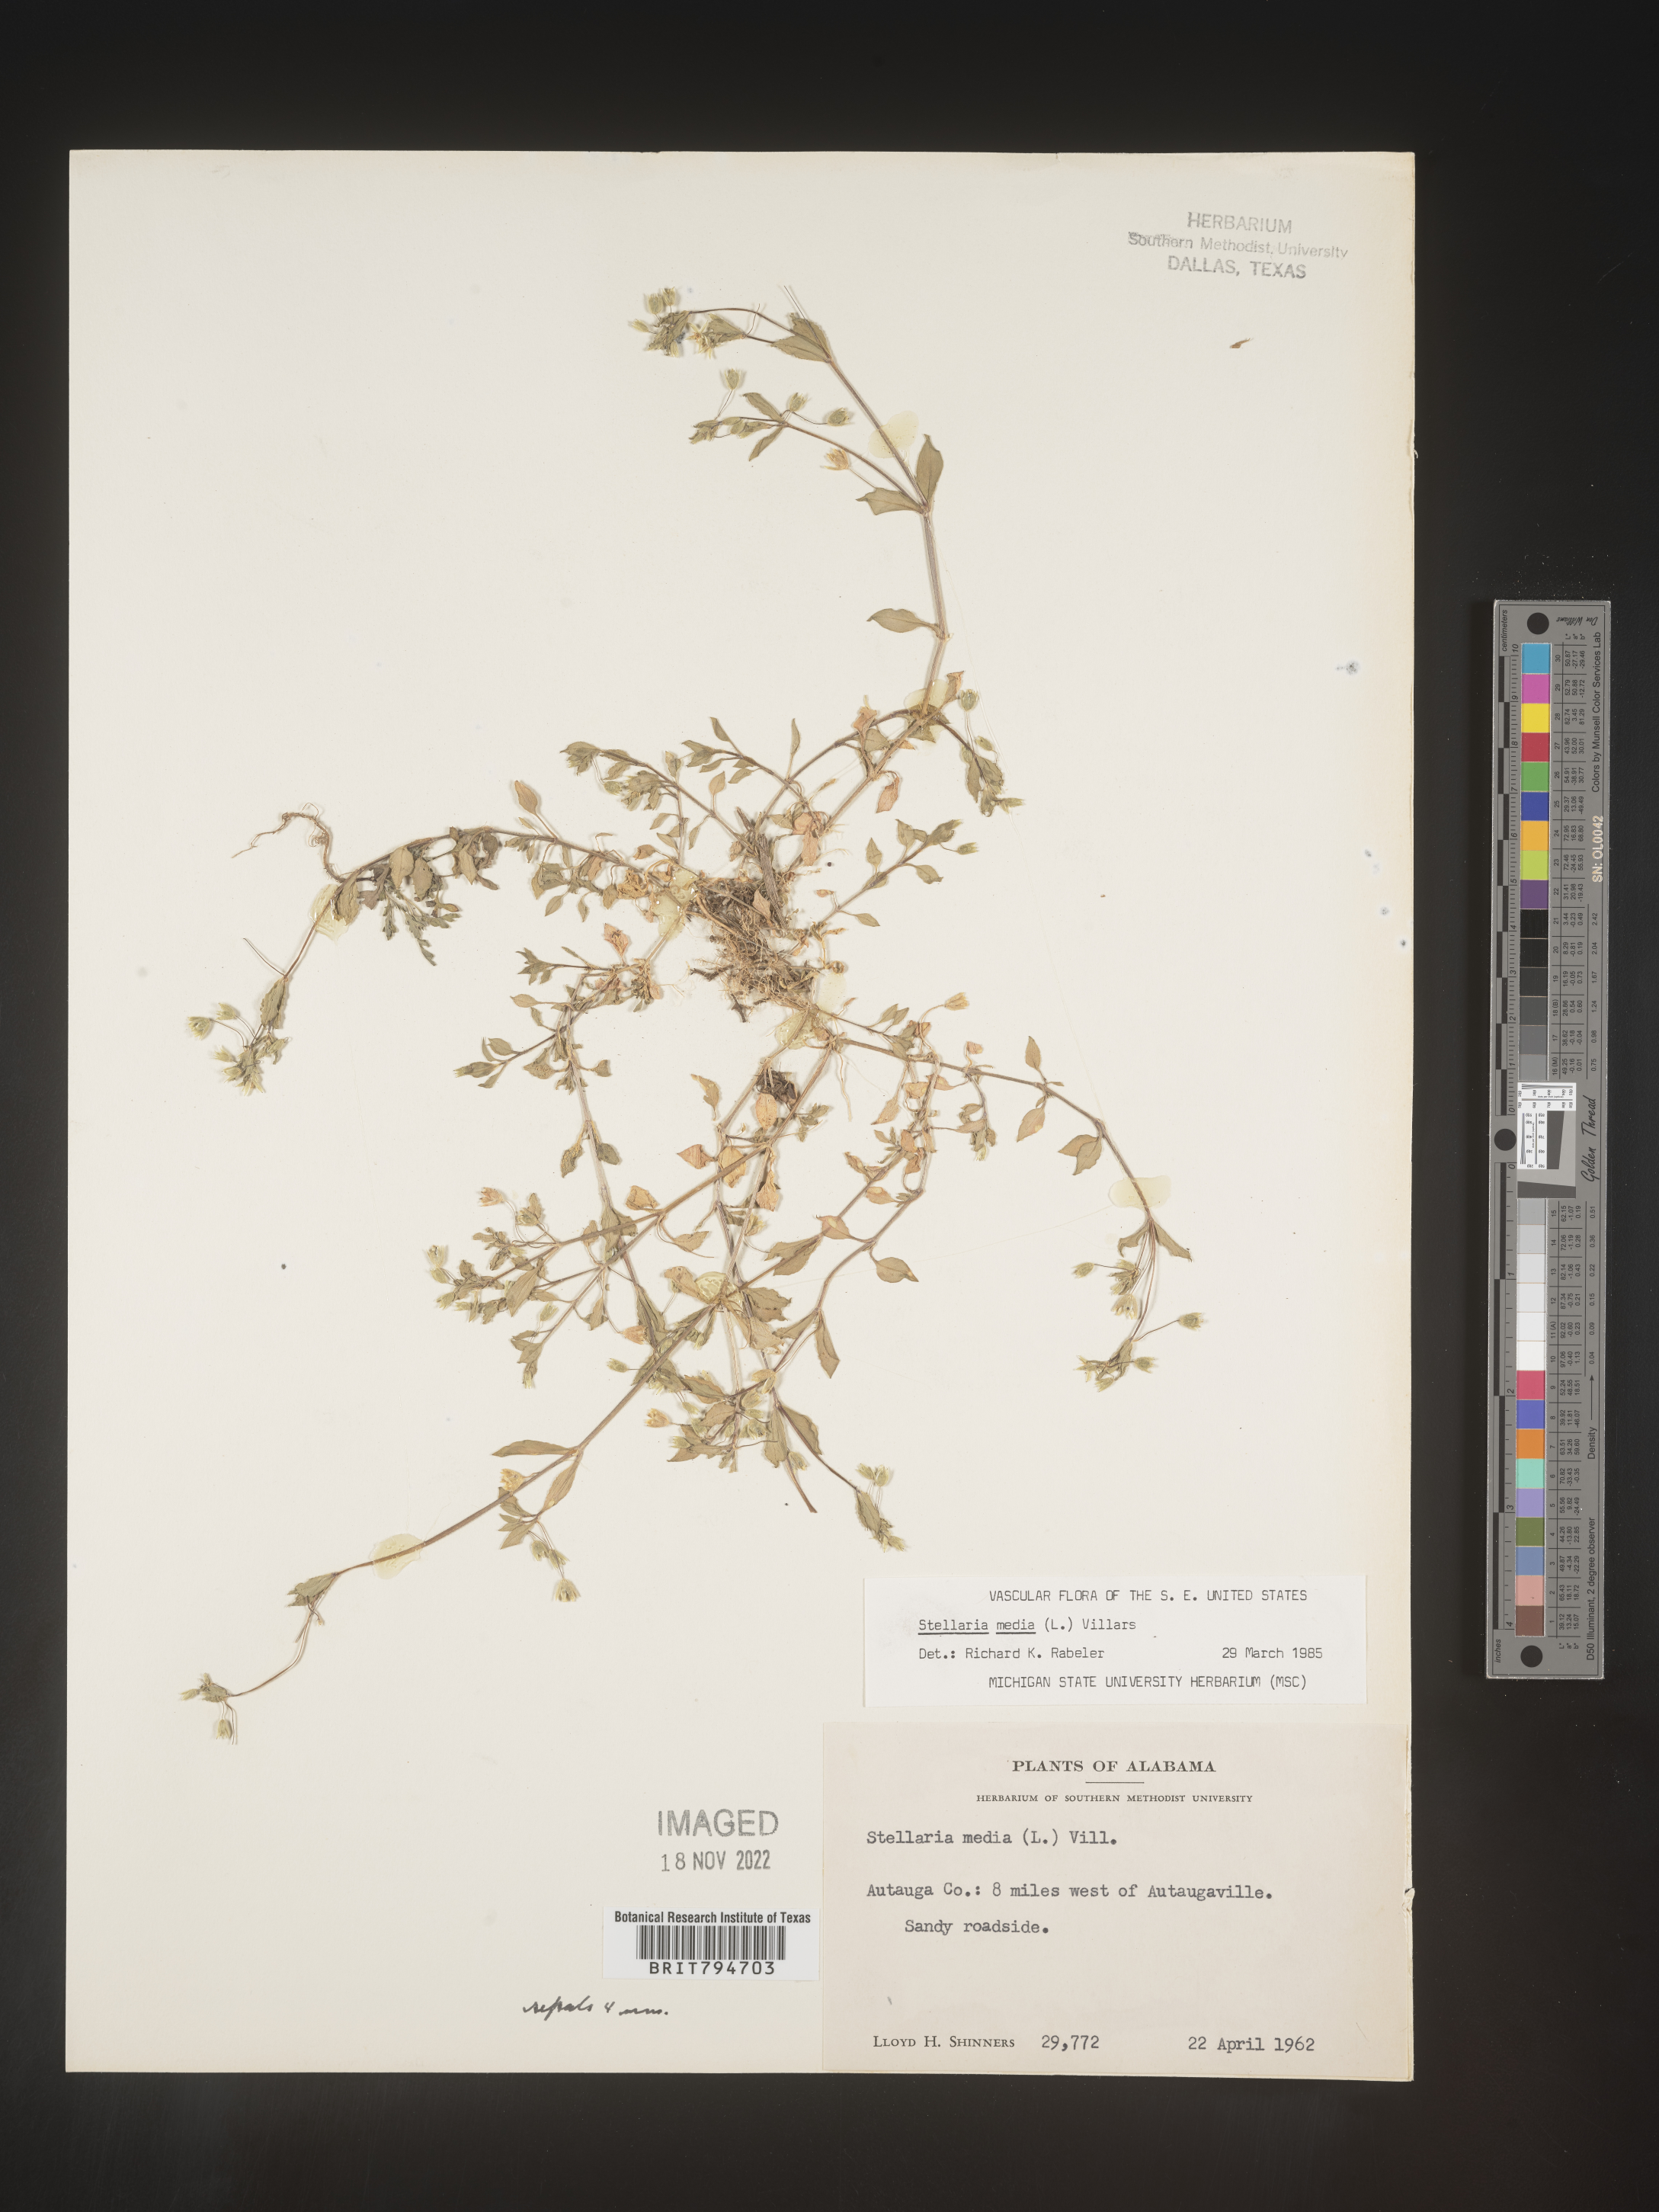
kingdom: Plantae
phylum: Tracheophyta
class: Magnoliopsida
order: Caryophyllales
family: Caryophyllaceae
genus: Stellaria
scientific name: Stellaria media
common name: Common chickweed
